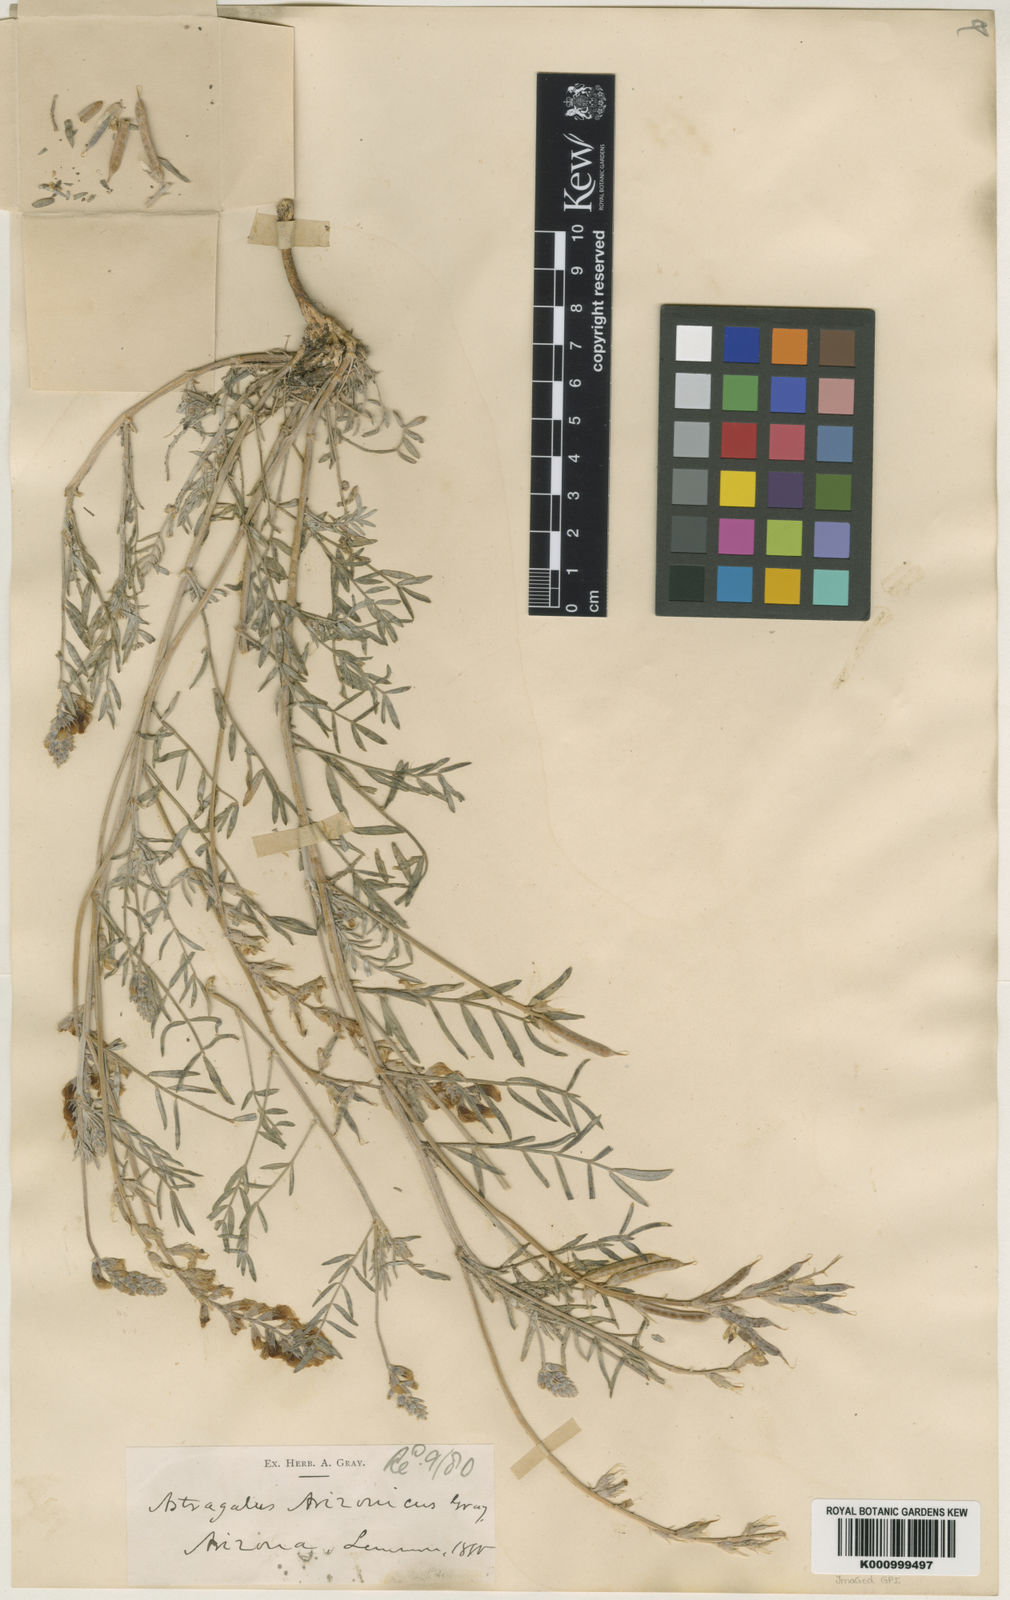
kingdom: Plantae
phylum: Tracheophyta
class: Magnoliopsida
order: Fabales
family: Fabaceae
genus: Astragalus
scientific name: Astragalus arizonicus
